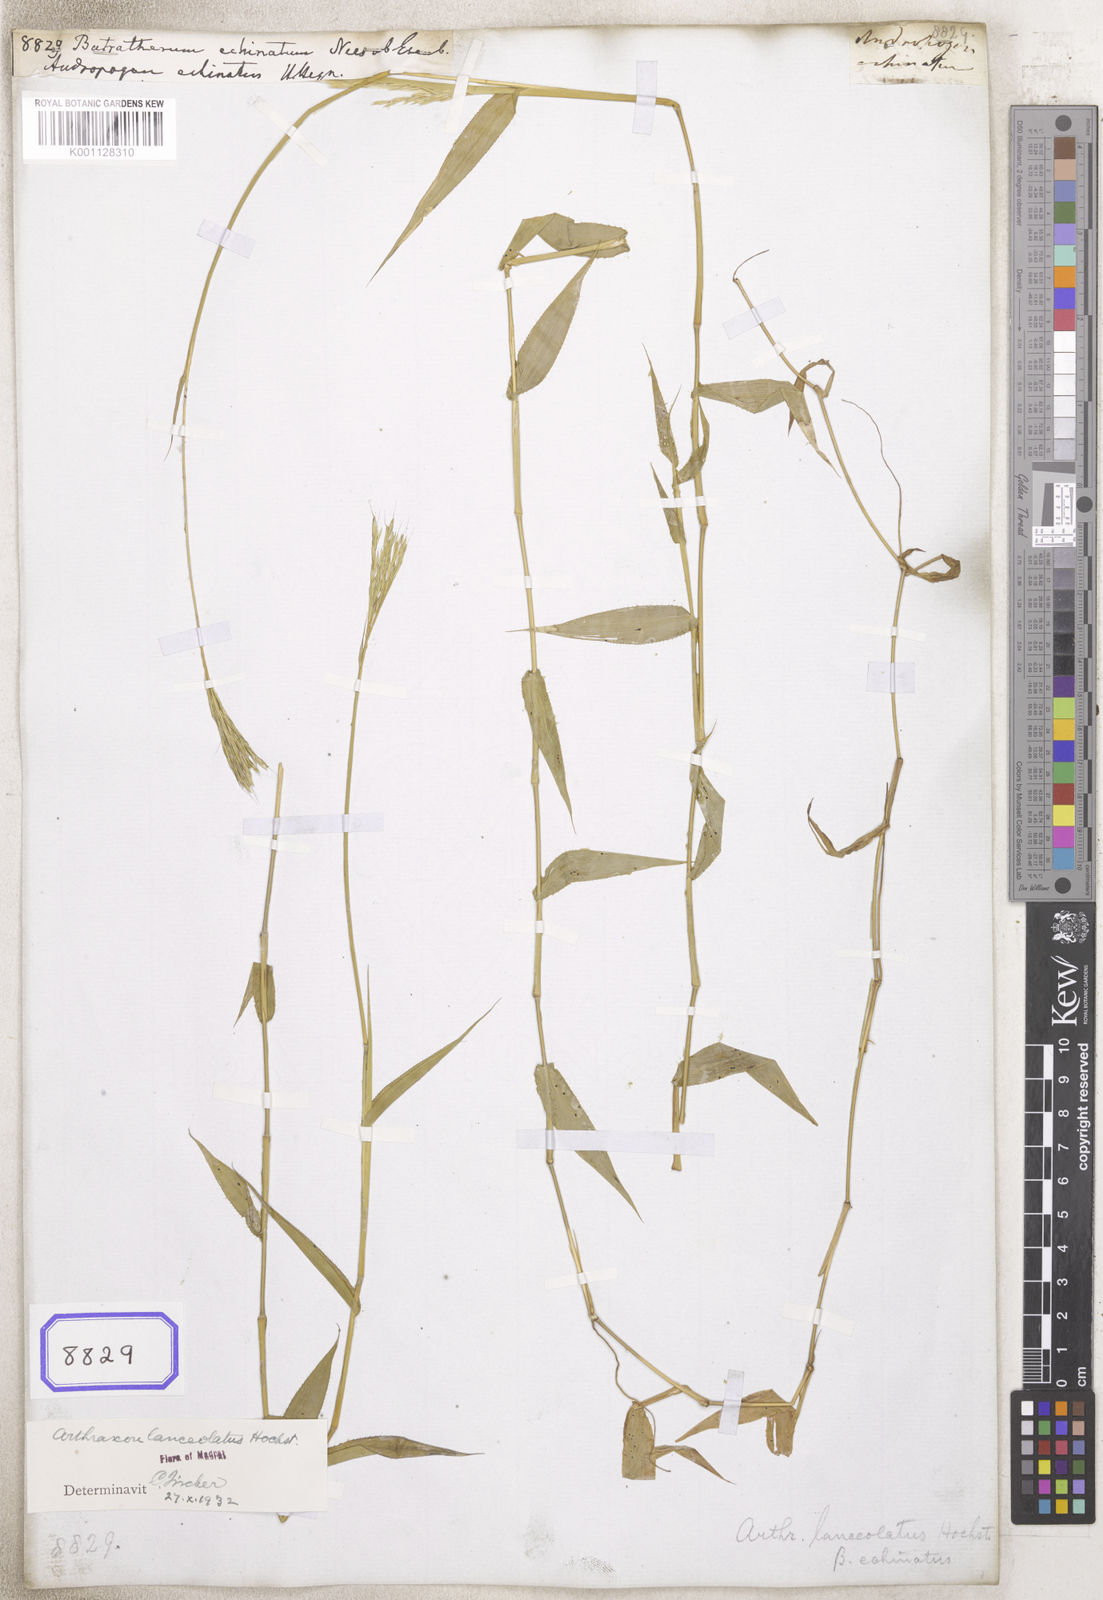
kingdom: Plantae
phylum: Tracheophyta
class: Liliopsida
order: Poales
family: Poaceae
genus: Arthraxon
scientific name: Arthraxon echinatus
